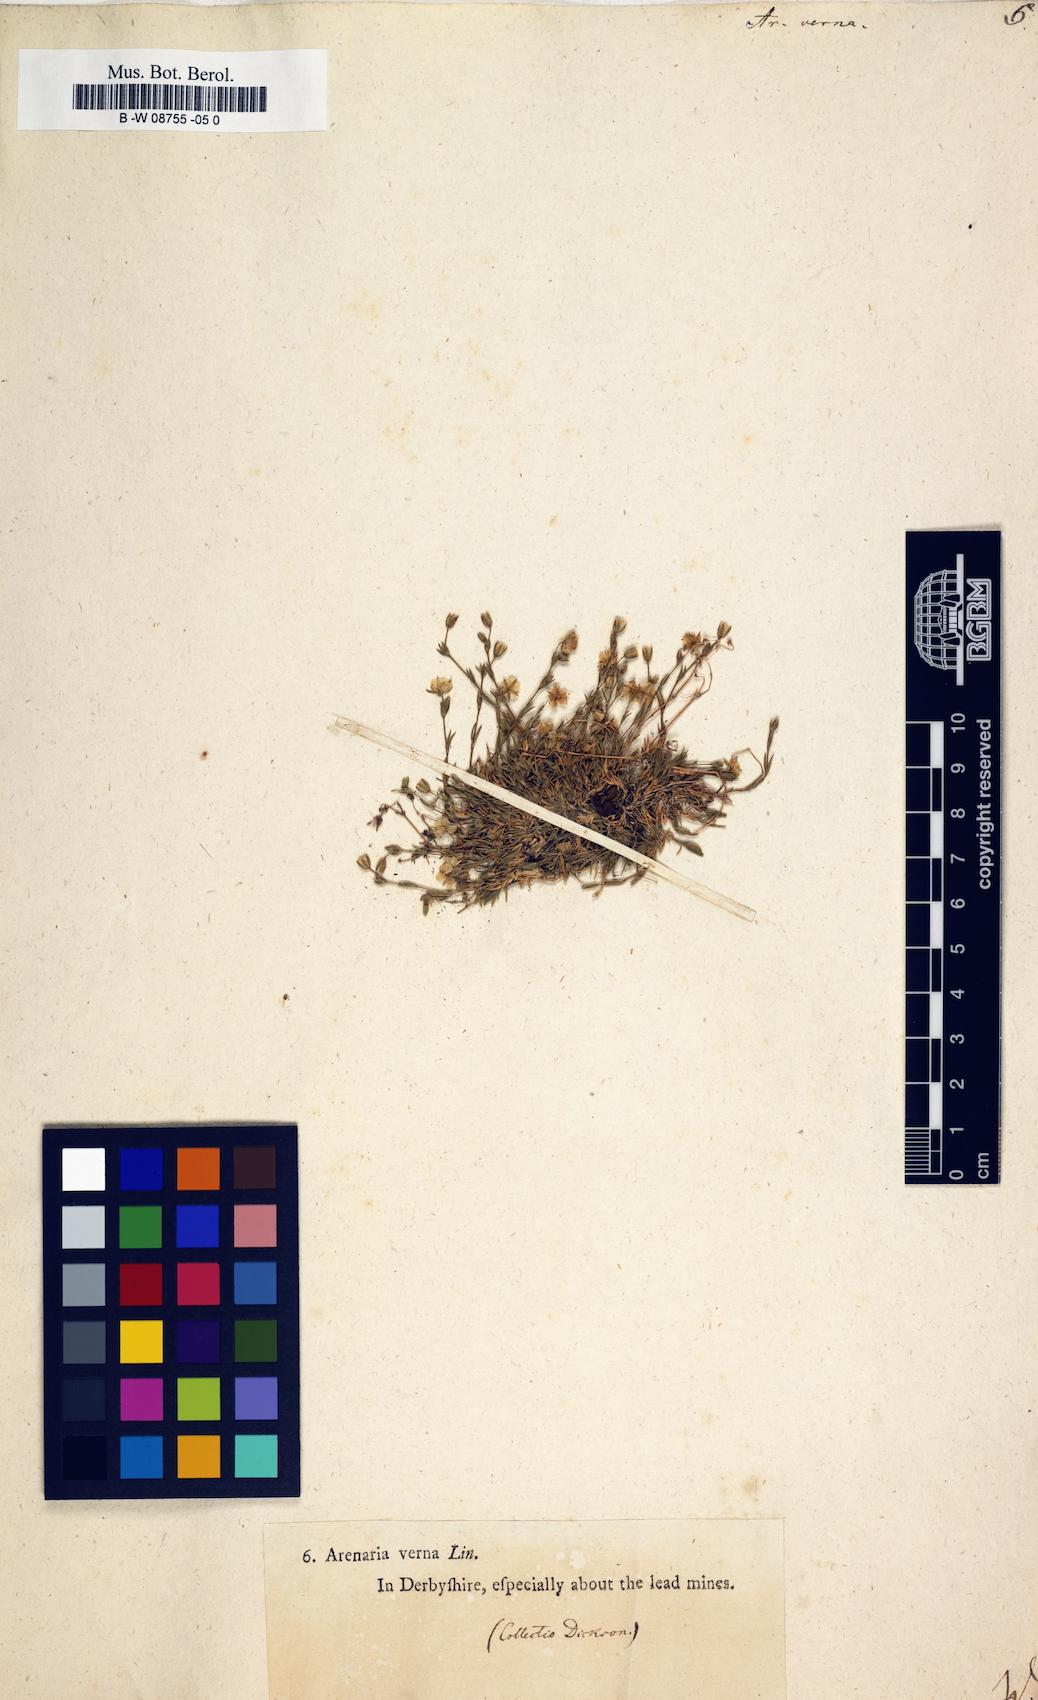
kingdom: Plantae
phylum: Tracheophyta
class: Magnoliopsida
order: Caryophyllales
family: Caryophyllaceae
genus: Sabulina
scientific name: Sabulina verna
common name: Spring sandwort
